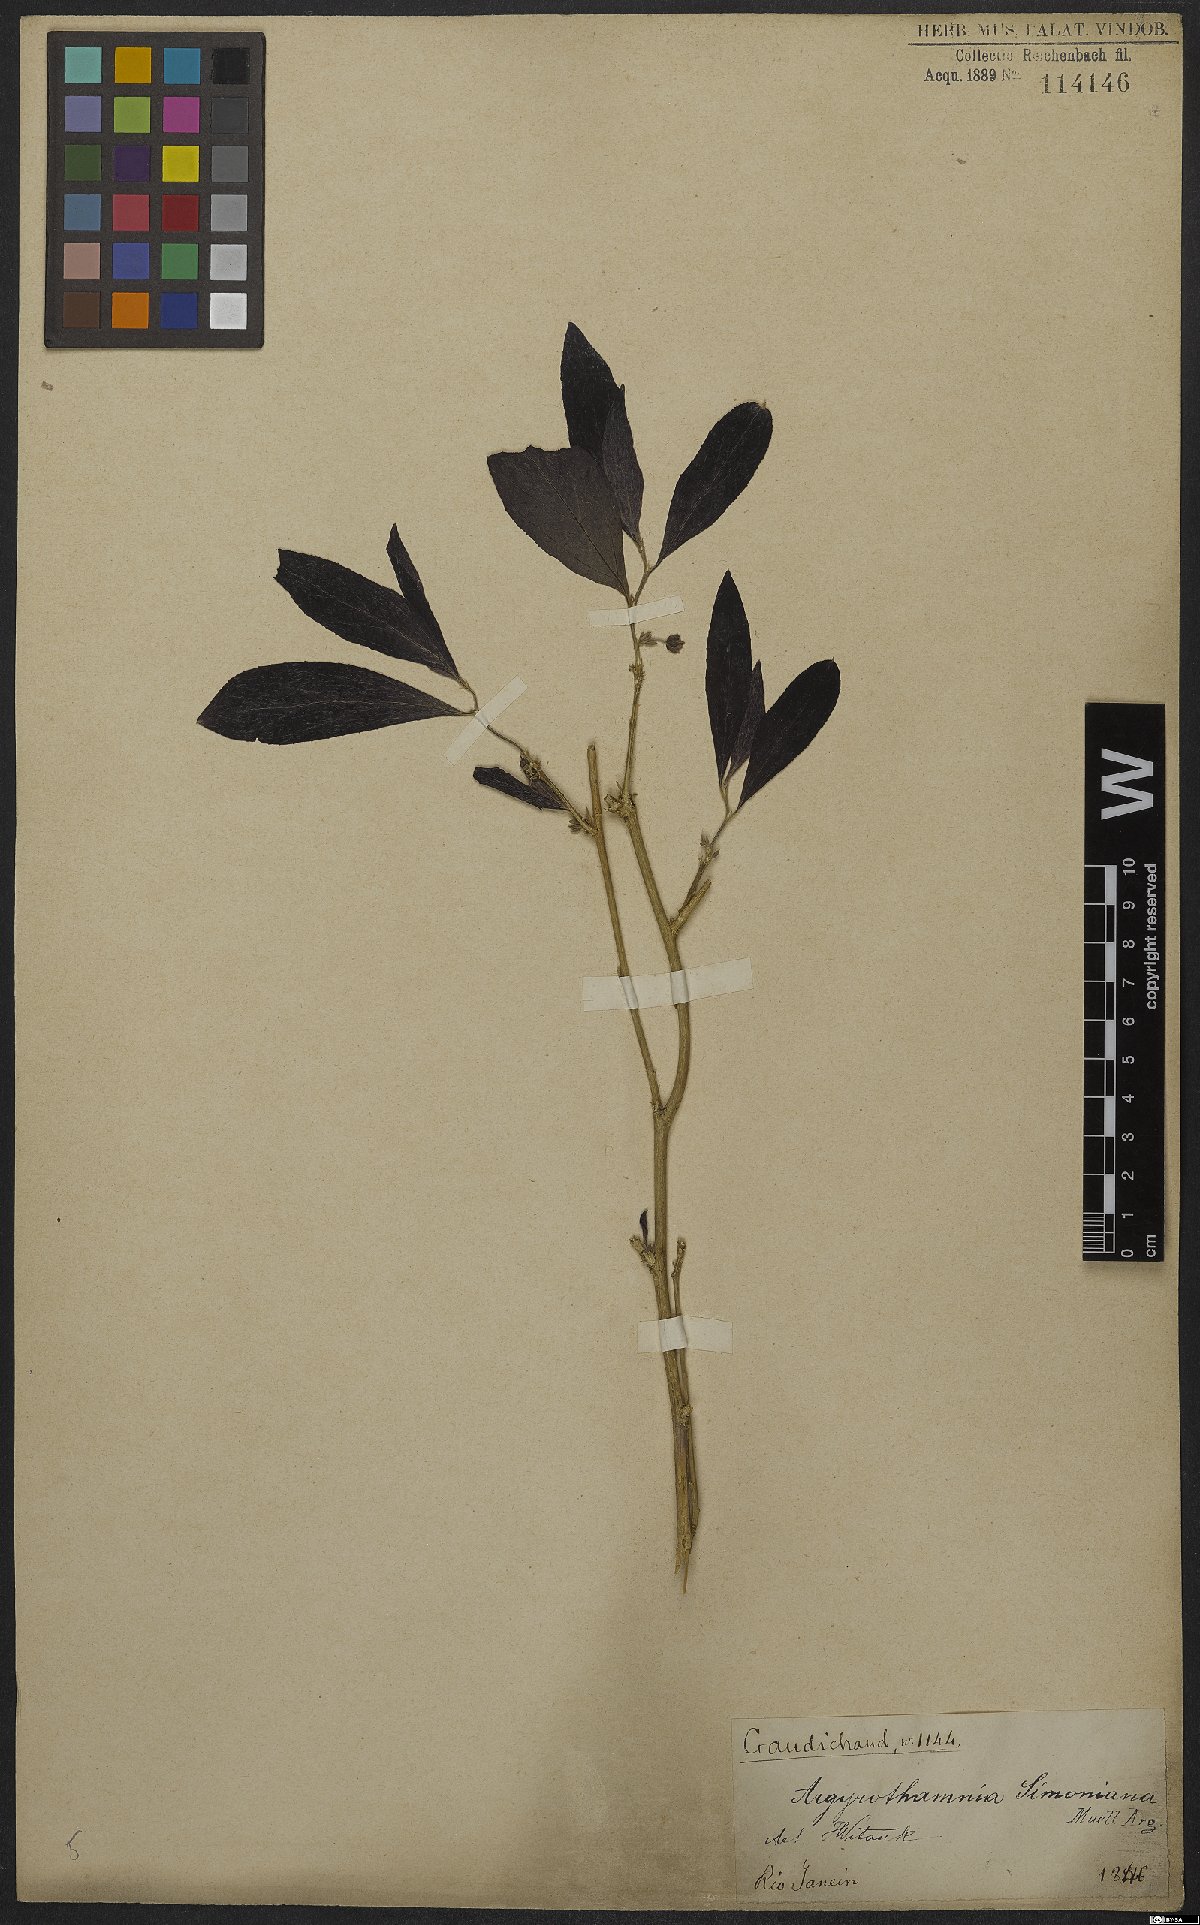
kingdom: Plantae
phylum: Tracheophyta
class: Magnoliopsida
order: Malpighiales
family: Euphorbiaceae
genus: Ditaxis
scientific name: Ditaxis simoniana
